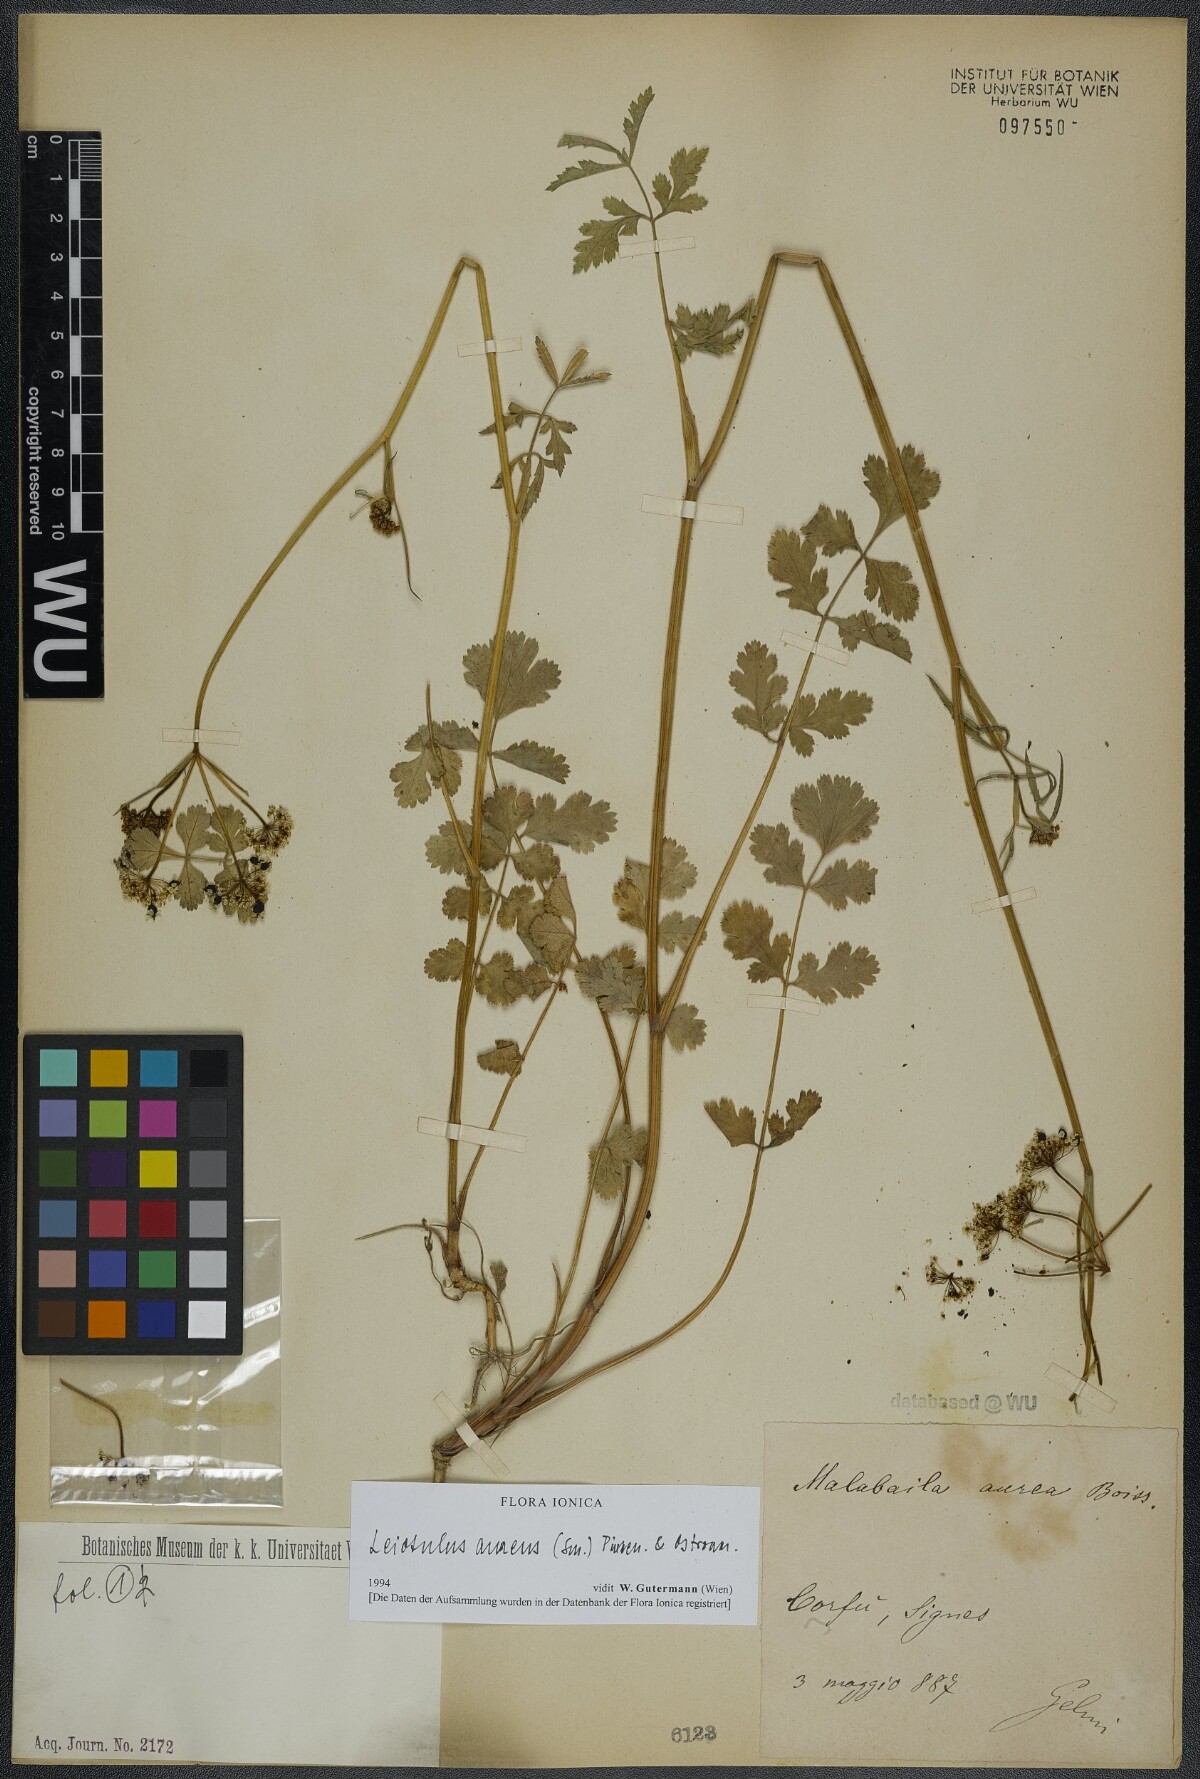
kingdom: Plantae
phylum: Tracheophyta
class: Magnoliopsida
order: Apiales
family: Apiaceae
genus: Leiotulus
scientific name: Leiotulus aureus
